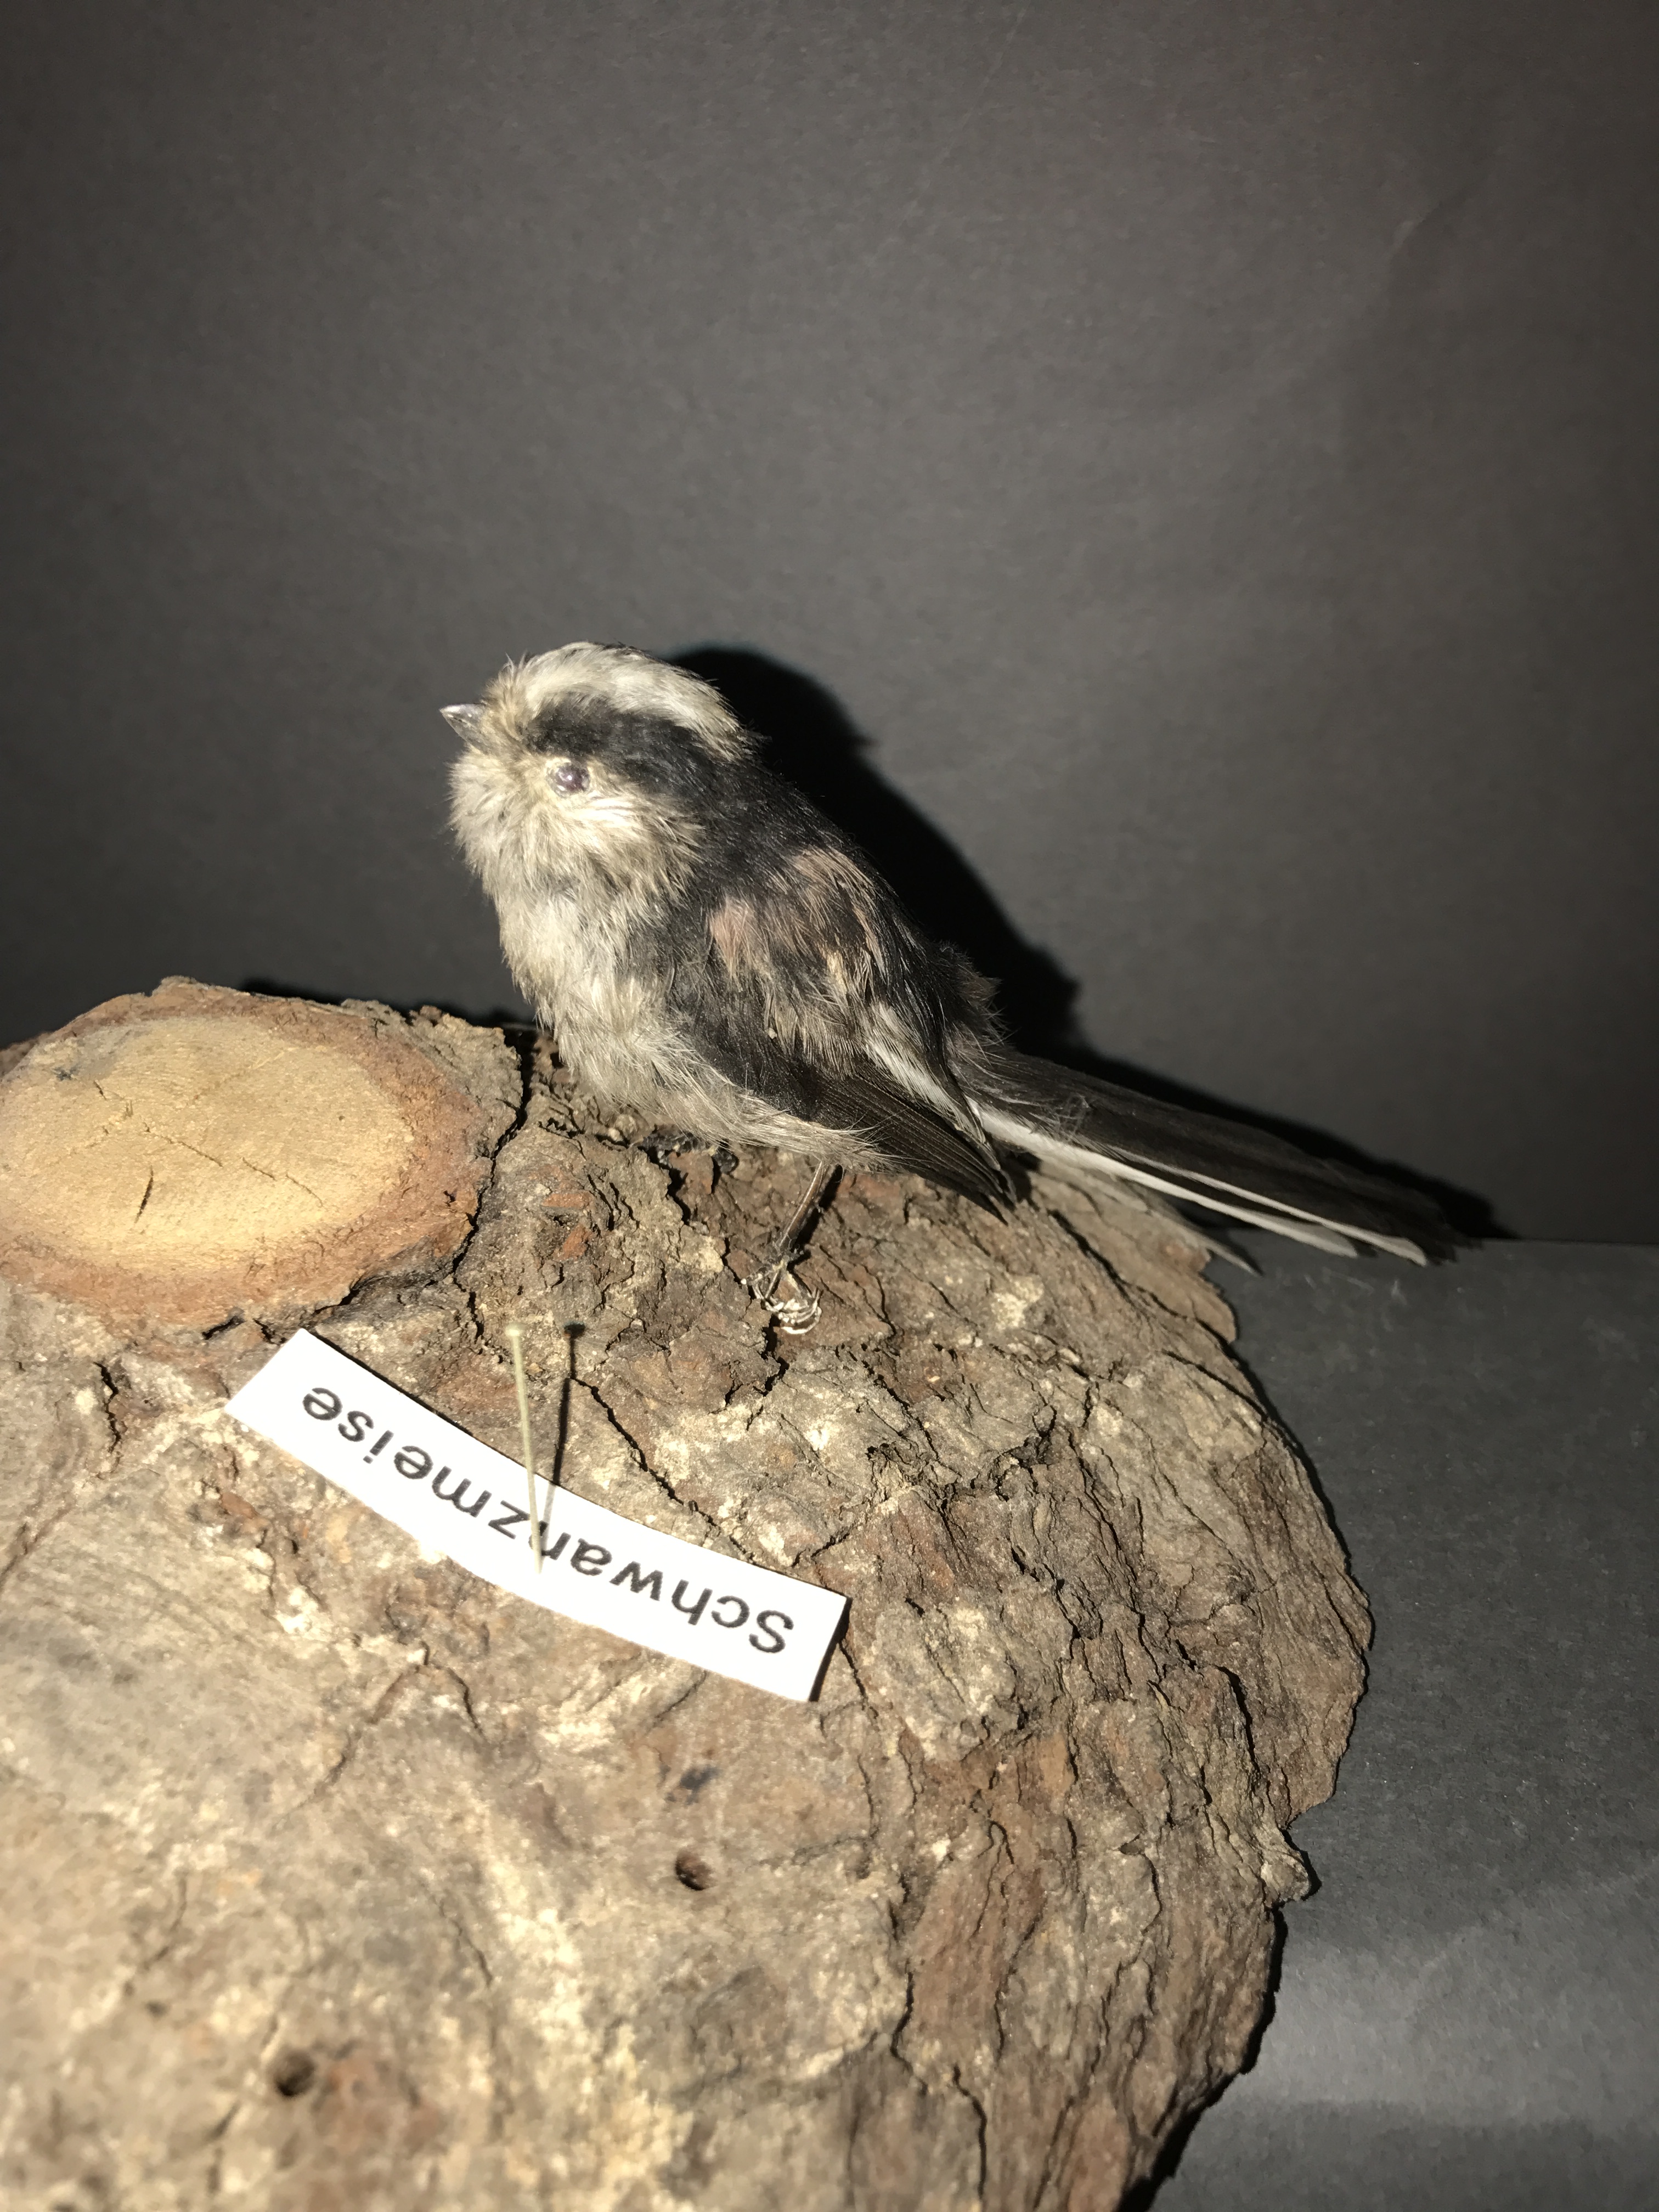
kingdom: Animalia
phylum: Chordata
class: Aves
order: Passeriformes
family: Aegithalidae
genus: Aegithalos
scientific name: Aegithalos caudatus
